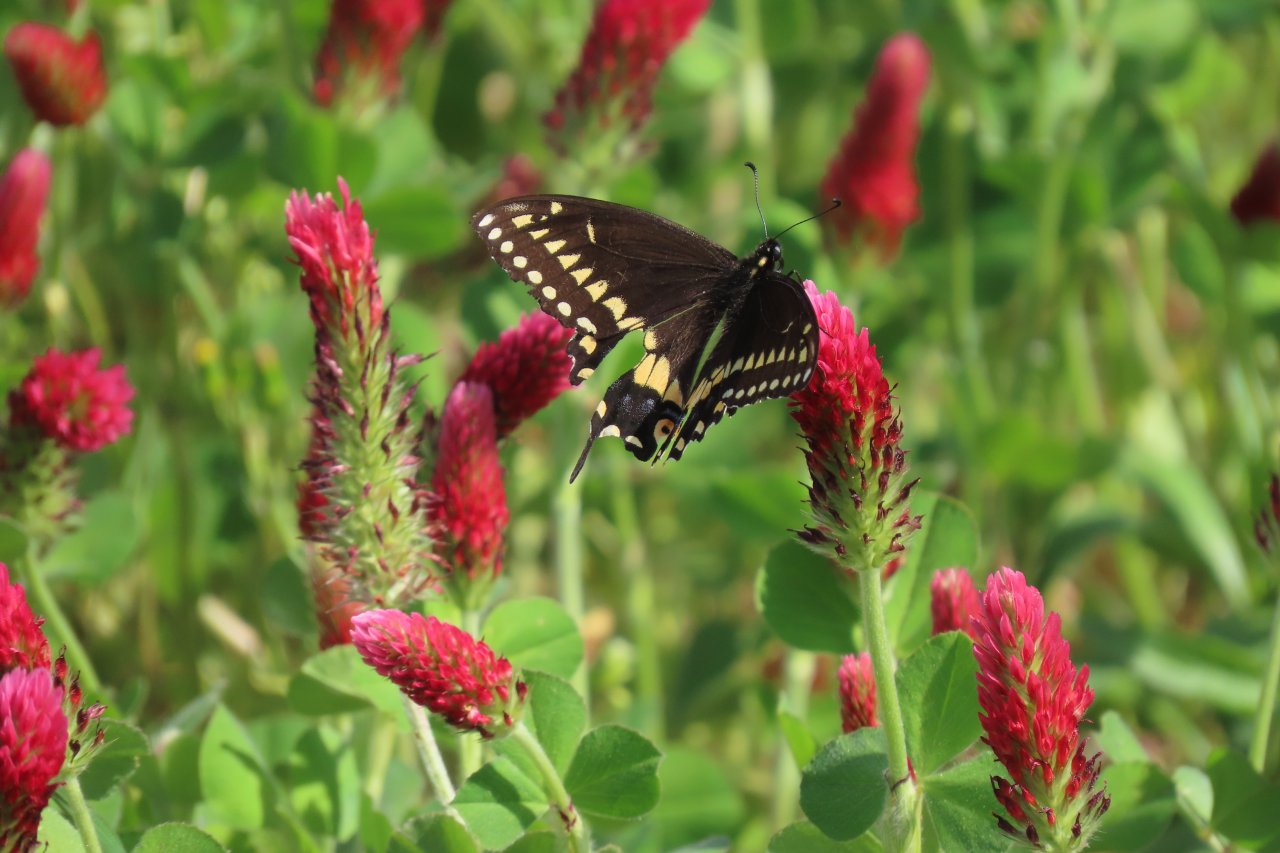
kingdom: Animalia
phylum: Arthropoda
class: Insecta
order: Lepidoptera
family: Papilionidae
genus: Papilio
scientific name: Papilio polyxenes
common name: Black Swallowtail
